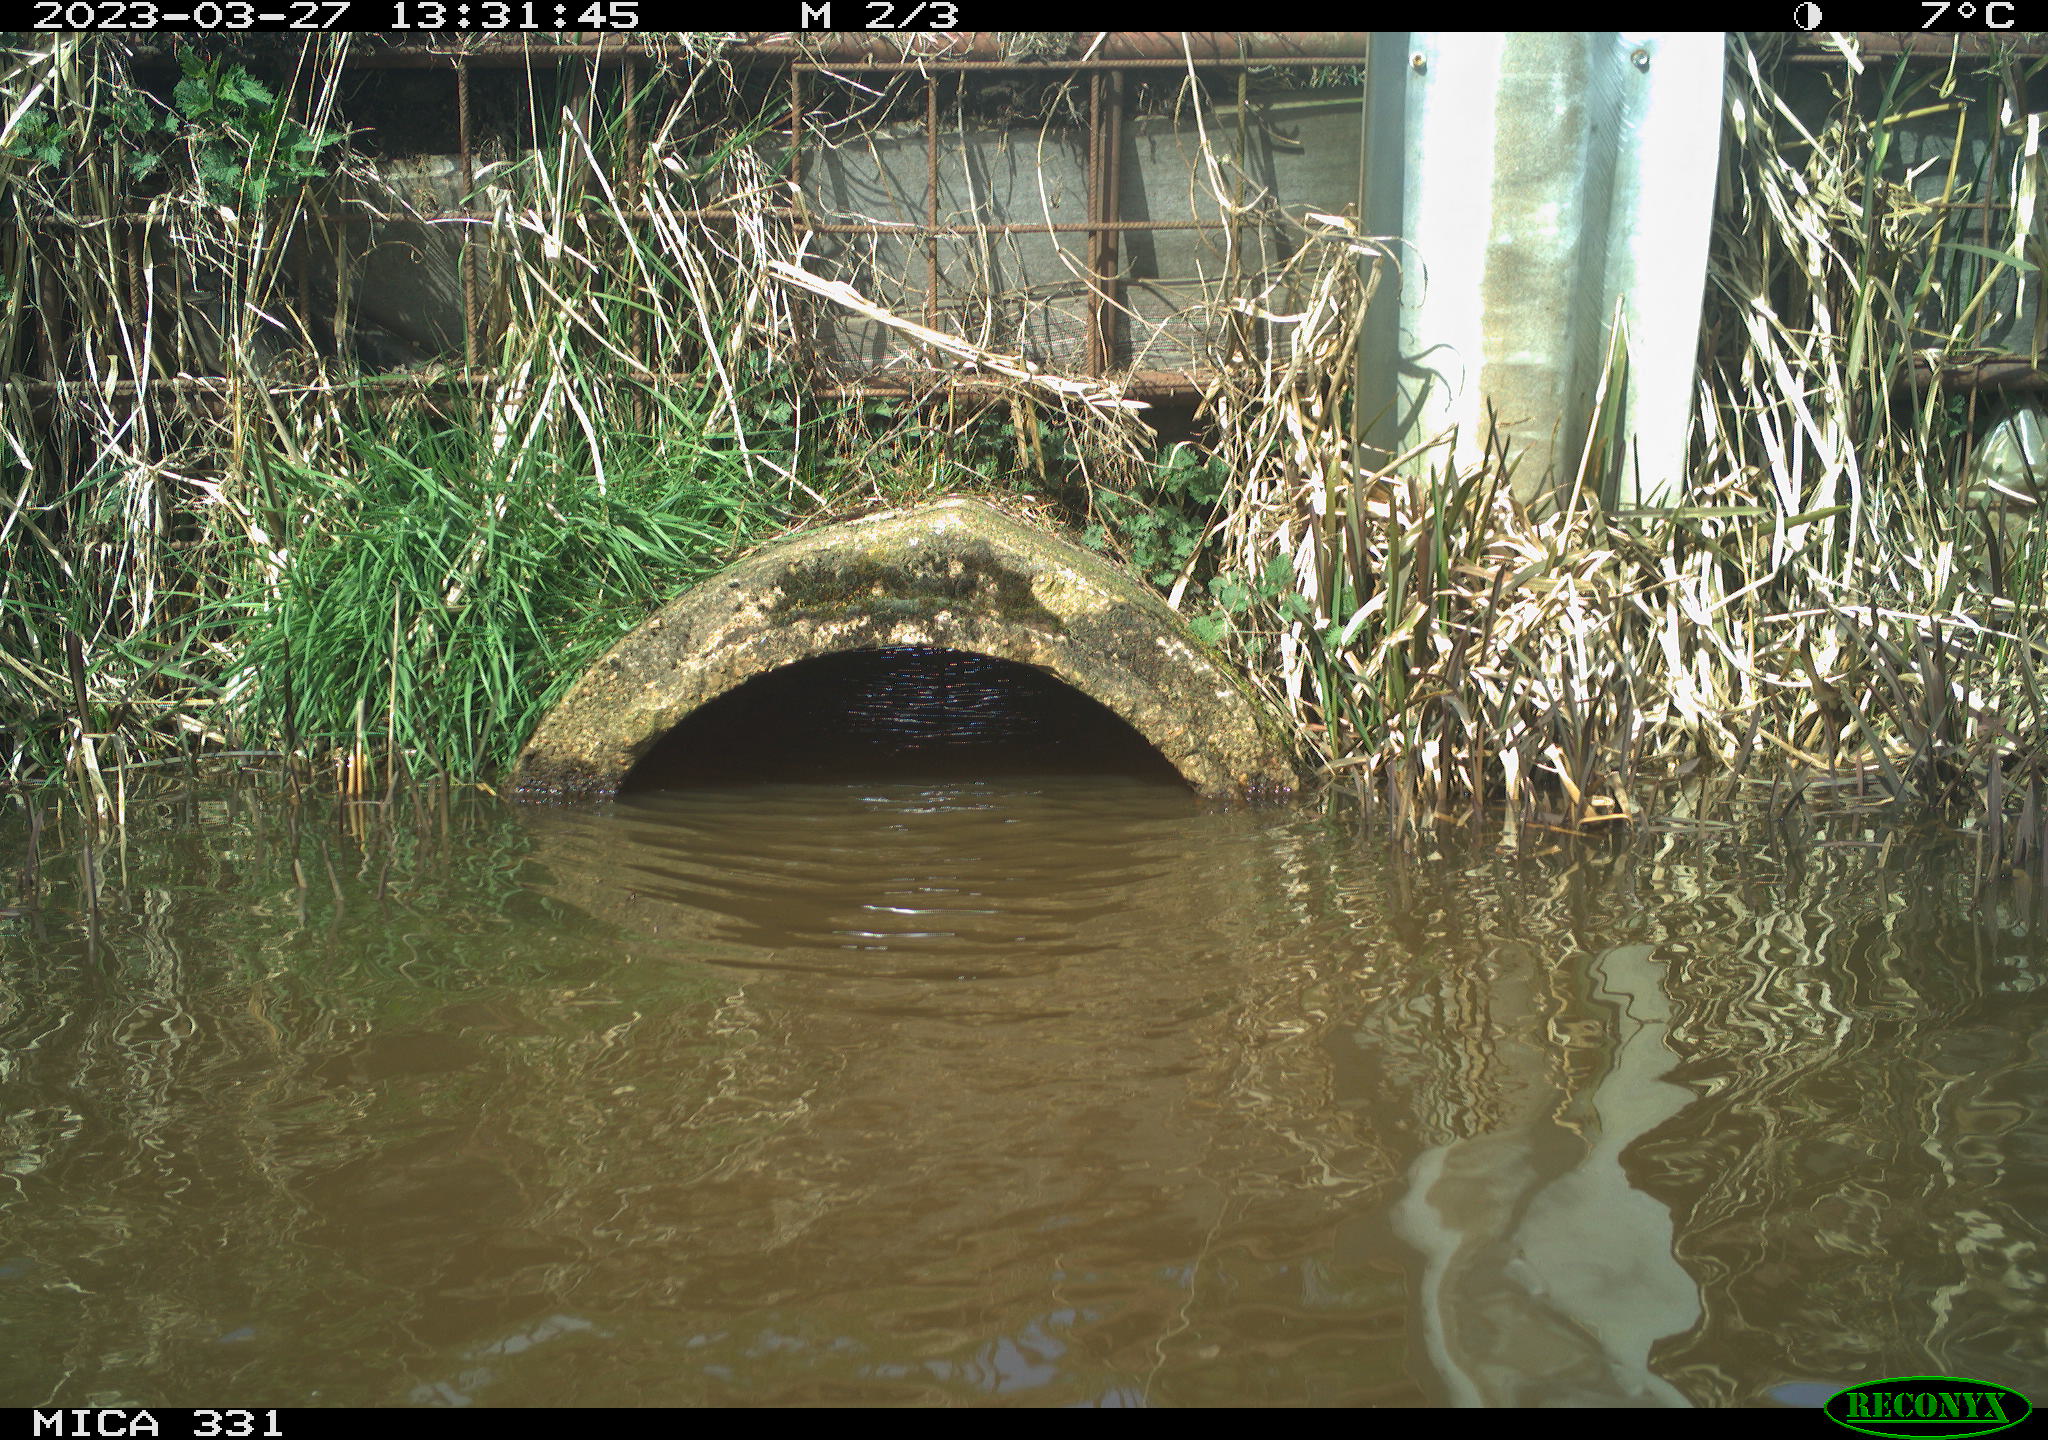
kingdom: Animalia
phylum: Chordata
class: Aves
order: Gruiformes
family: Rallidae
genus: Gallinula
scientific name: Gallinula chloropus
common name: Common moorhen
